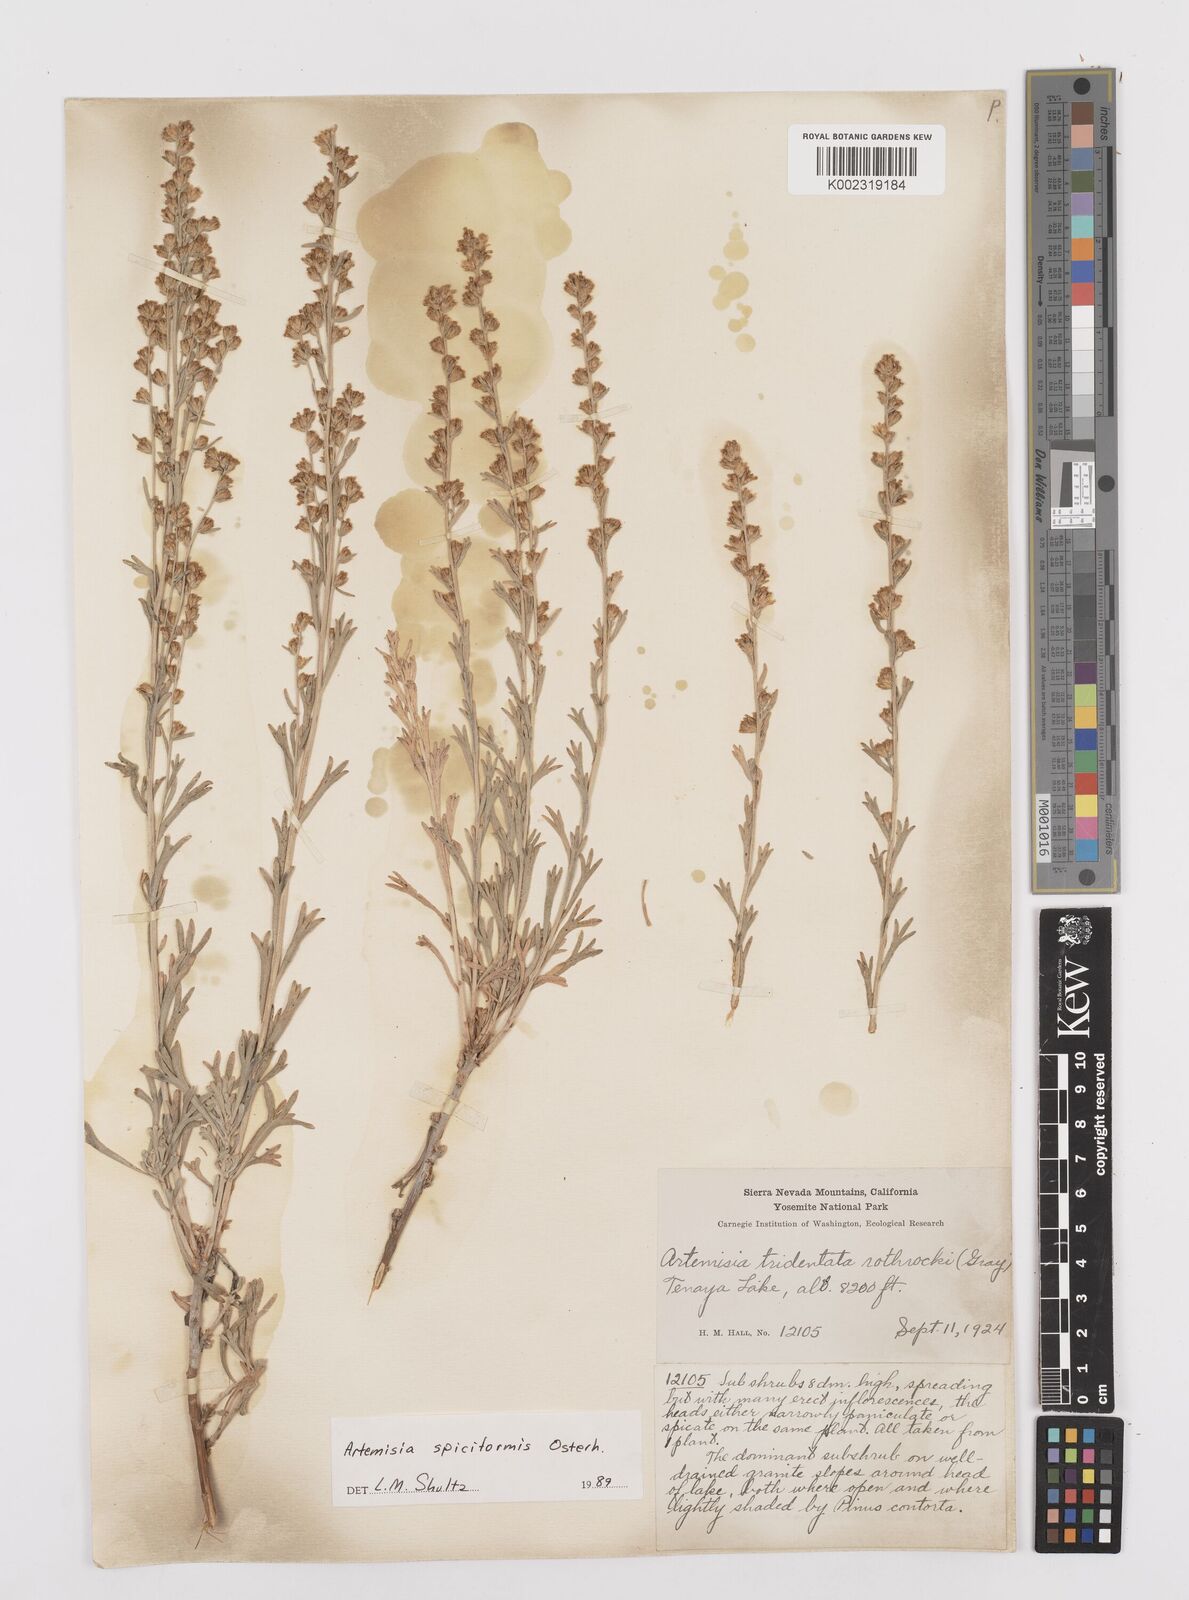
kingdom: Plantae
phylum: Tracheophyta
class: Magnoliopsida
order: Asterales
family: Asteraceae
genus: Artemisia
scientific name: Artemisia spiciformis
